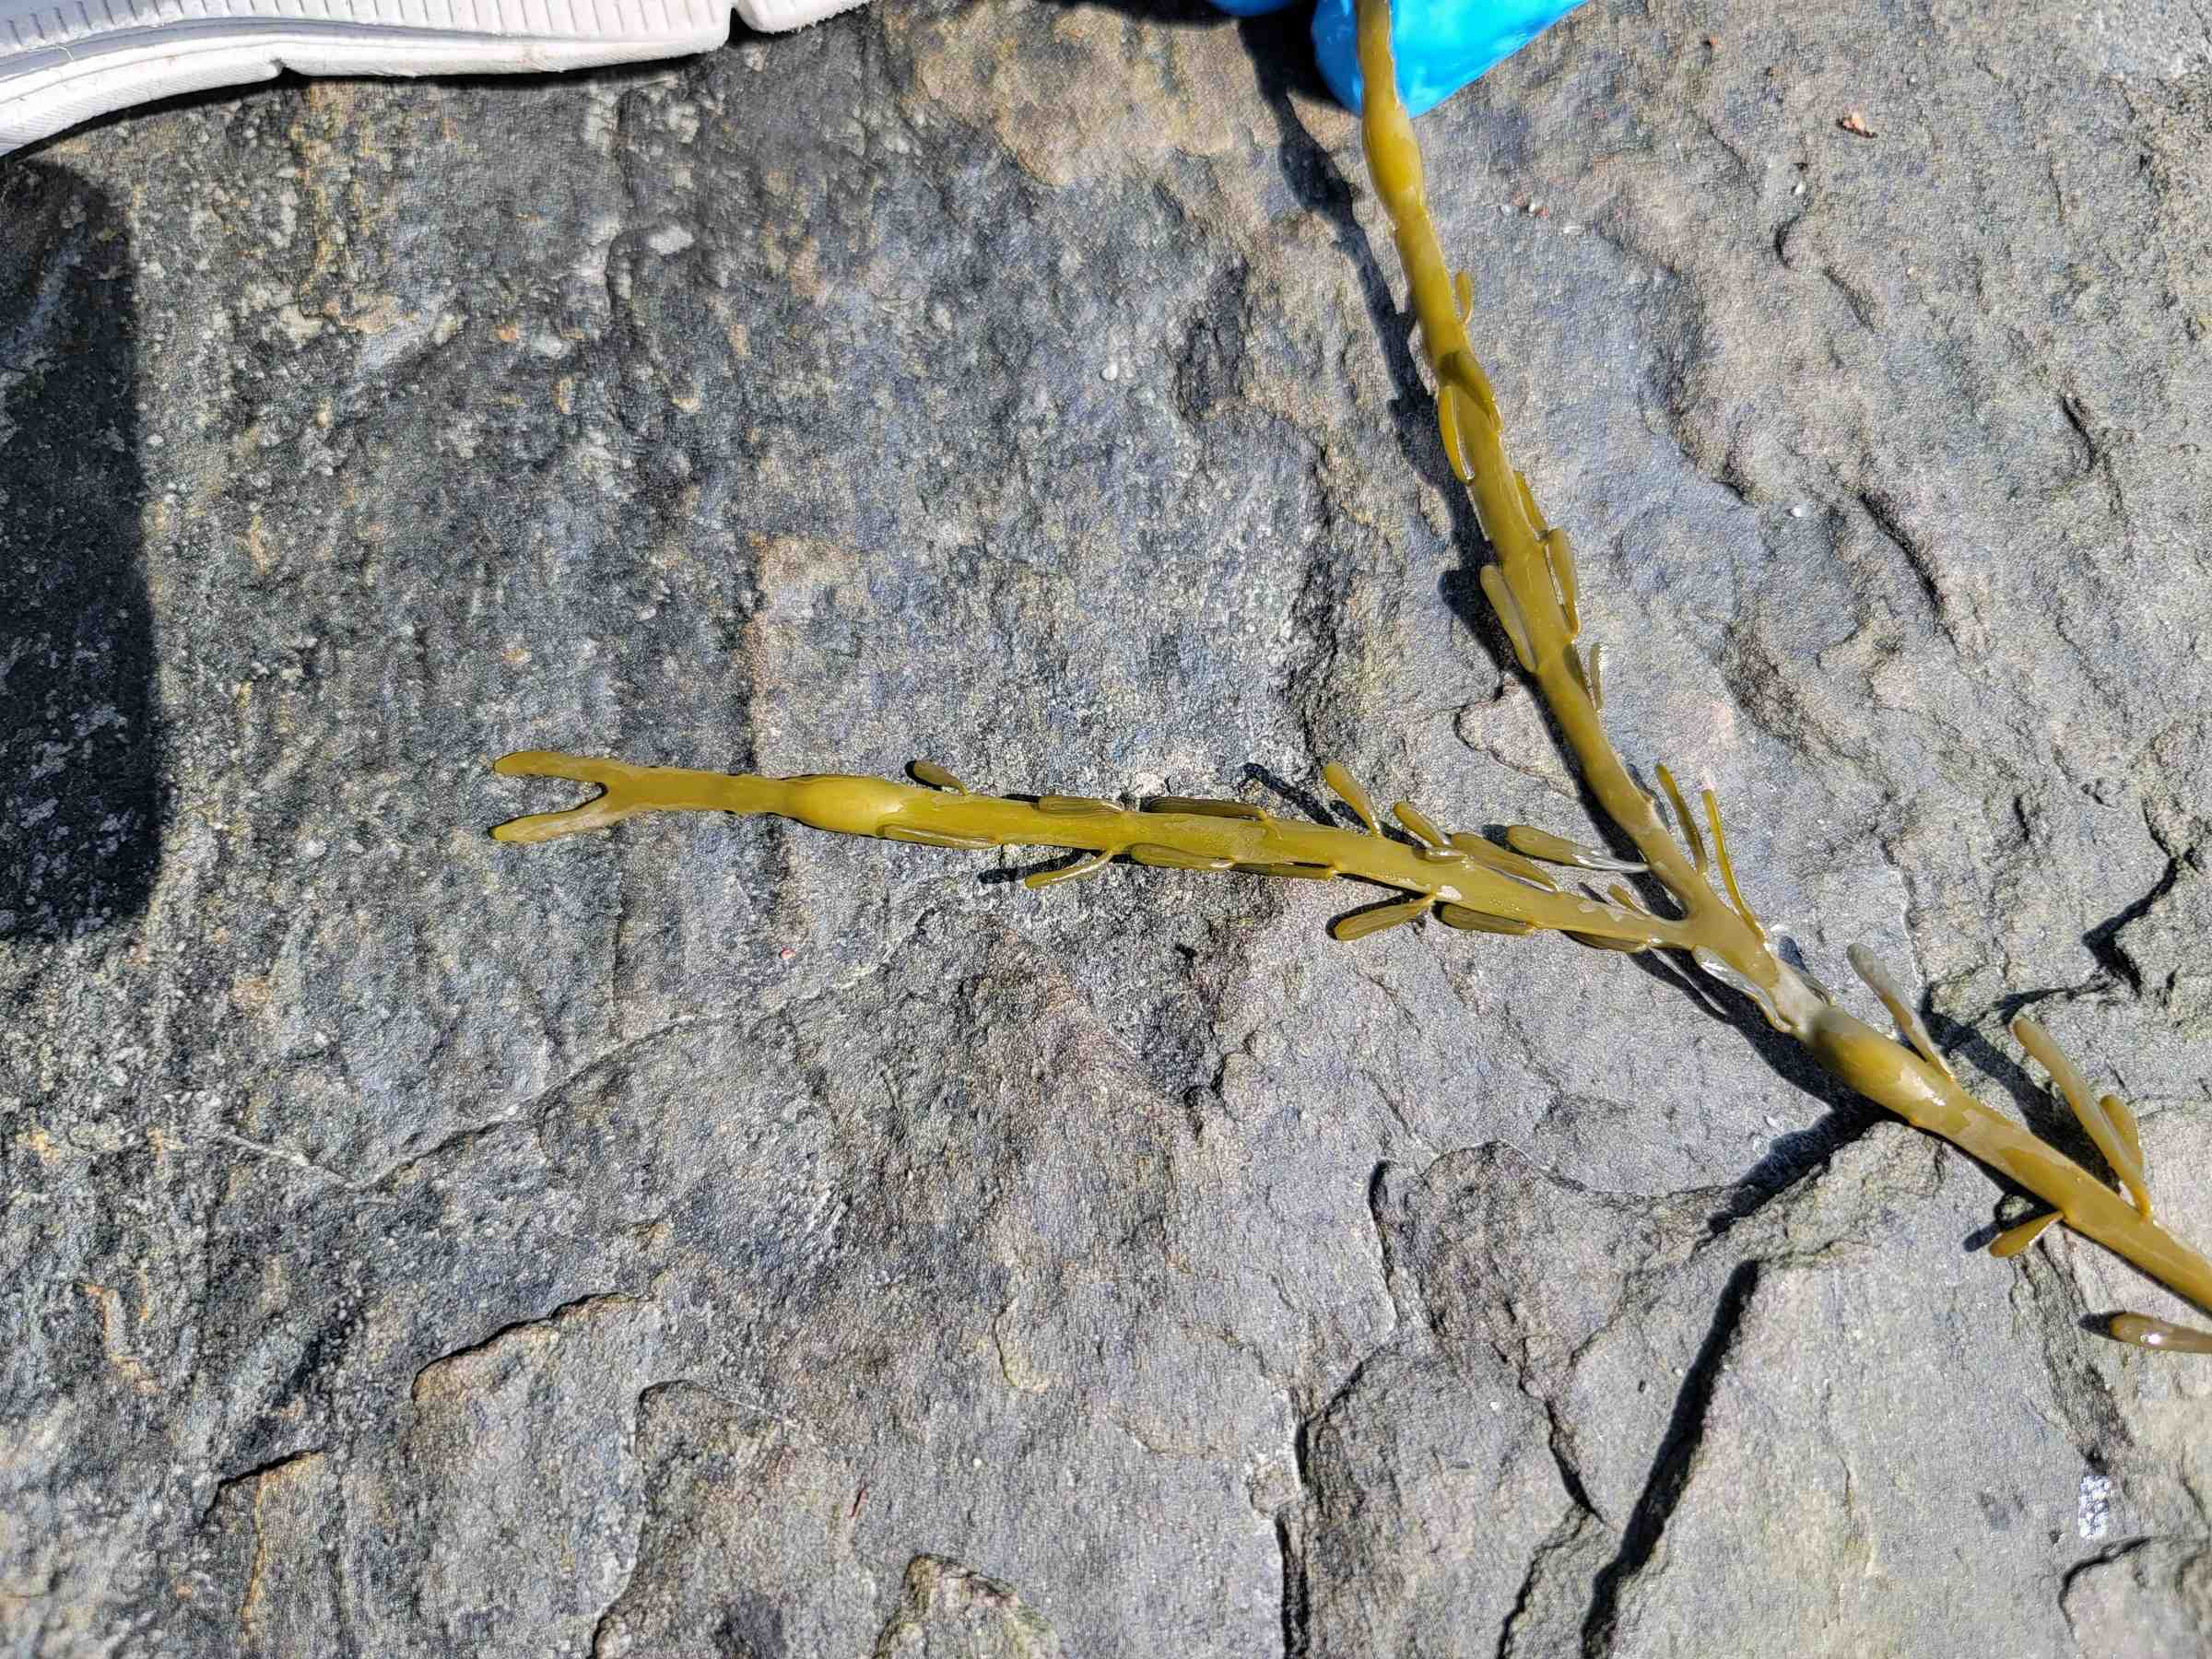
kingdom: Chromista
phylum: Ochrophyta
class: Phaeophyceae
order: Fucales
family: Fucaceae
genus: Ascophyllum
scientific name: Ascophyllum nodosum
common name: Rockweed
